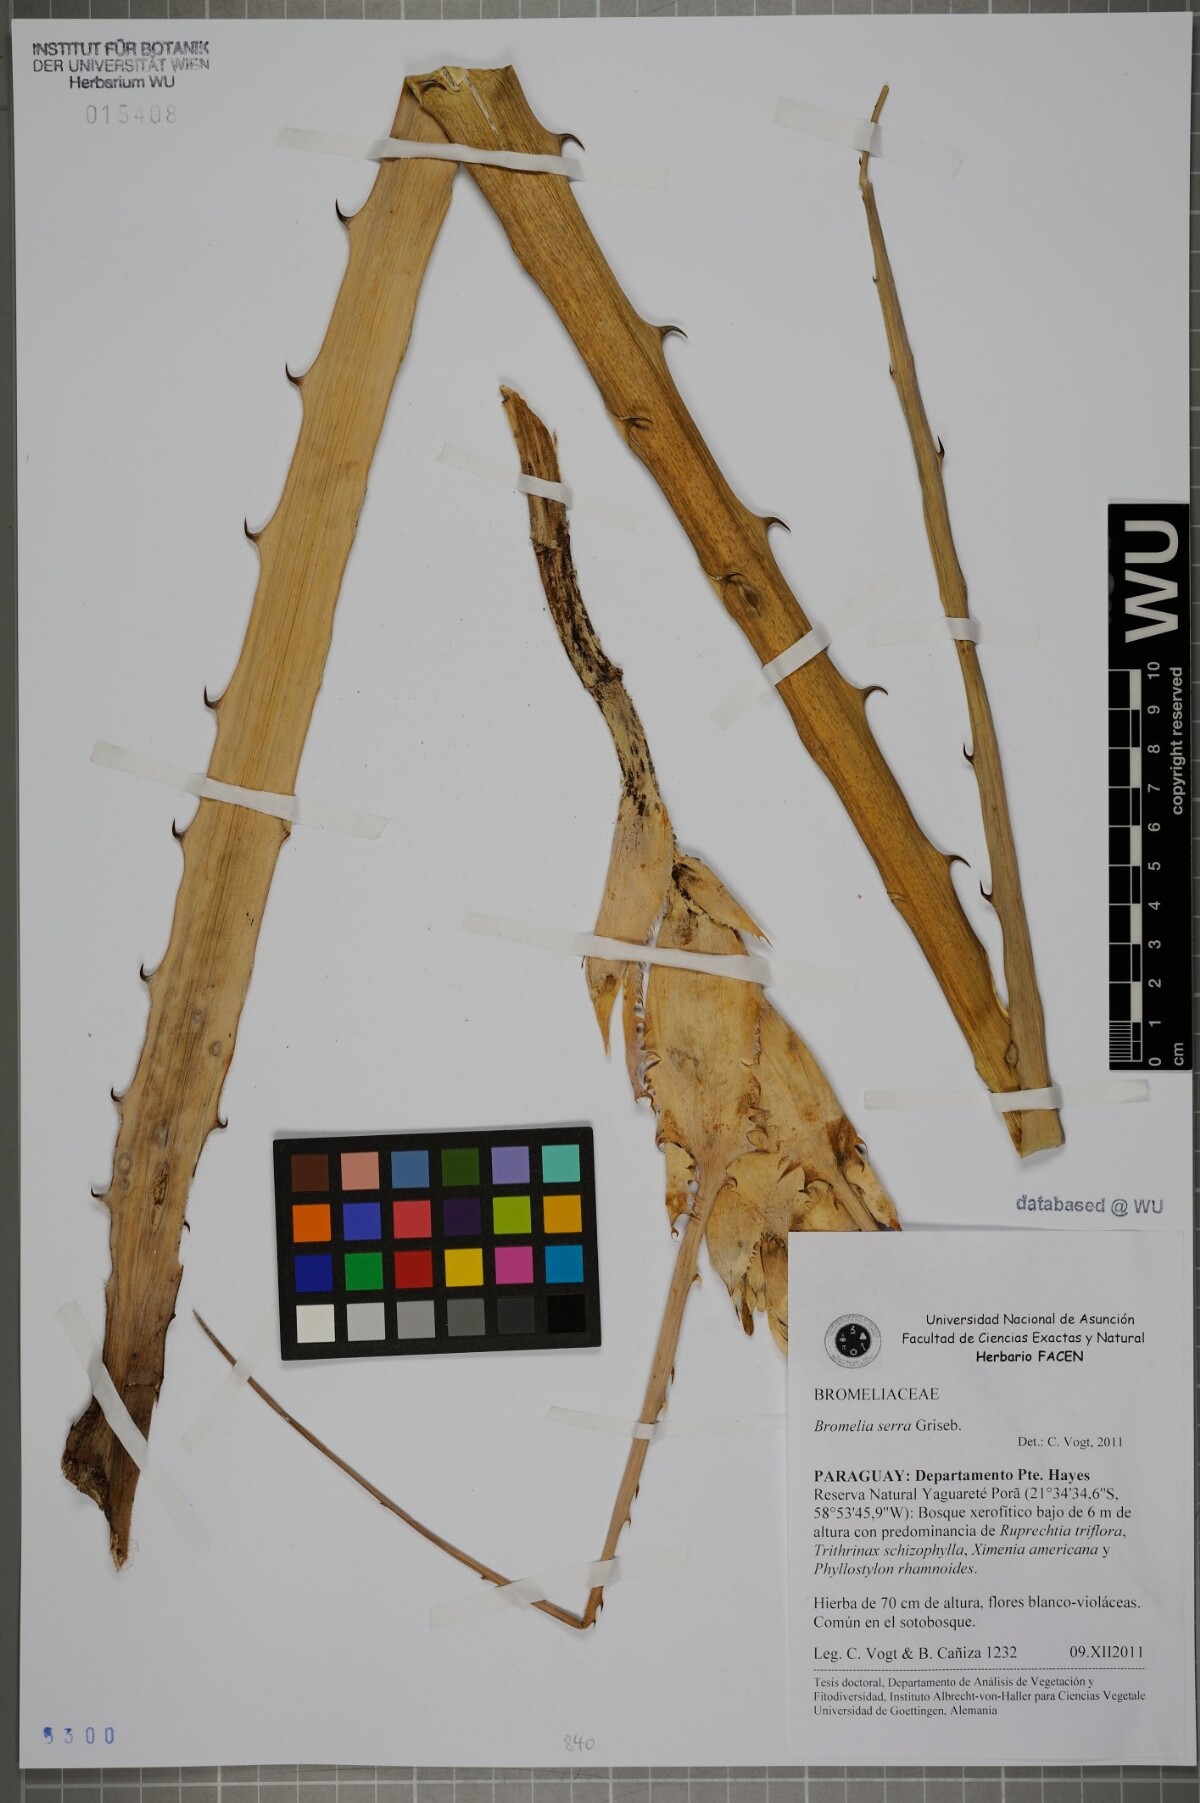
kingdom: Plantae
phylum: Tracheophyta
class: Liliopsida
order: Poales
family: Bromeliaceae
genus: Bromelia
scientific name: Bromelia serra
